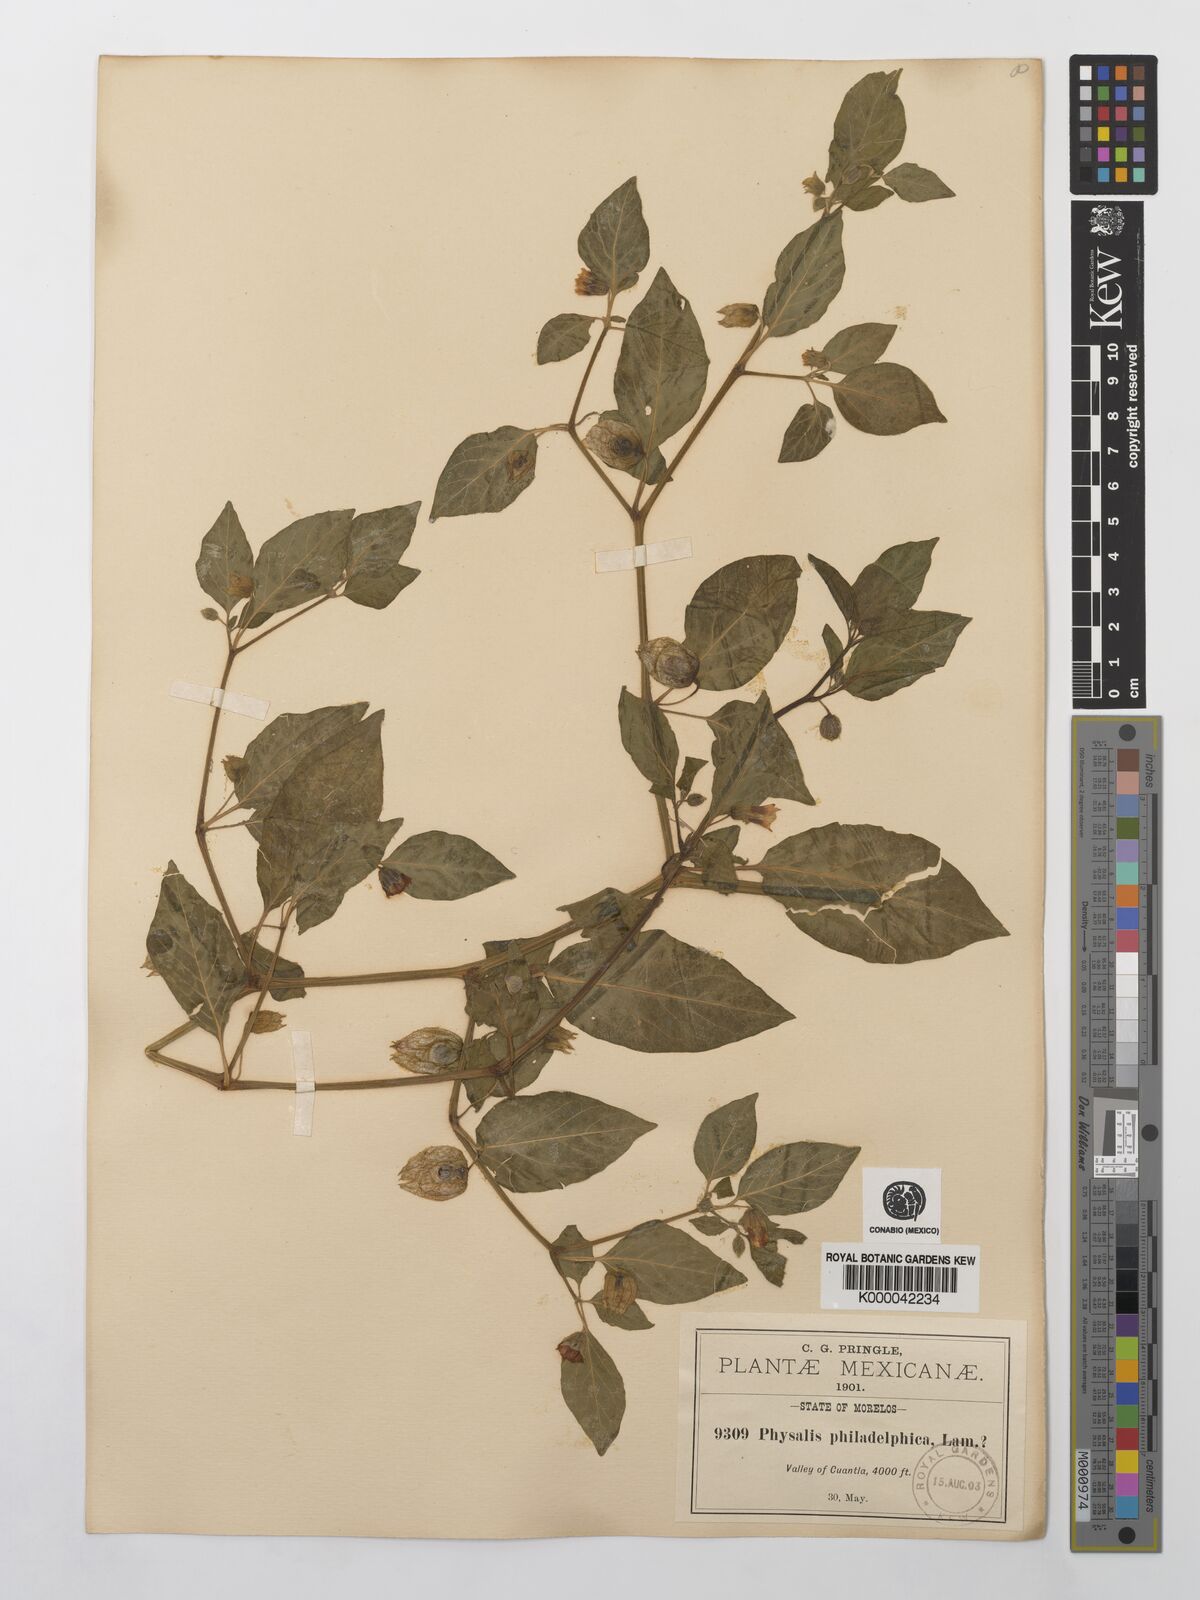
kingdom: Plantae
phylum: Tracheophyta
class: Magnoliopsida
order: Solanales
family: Solanaceae
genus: Physalis
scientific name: Physalis philadelphica
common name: Husk-tomato
